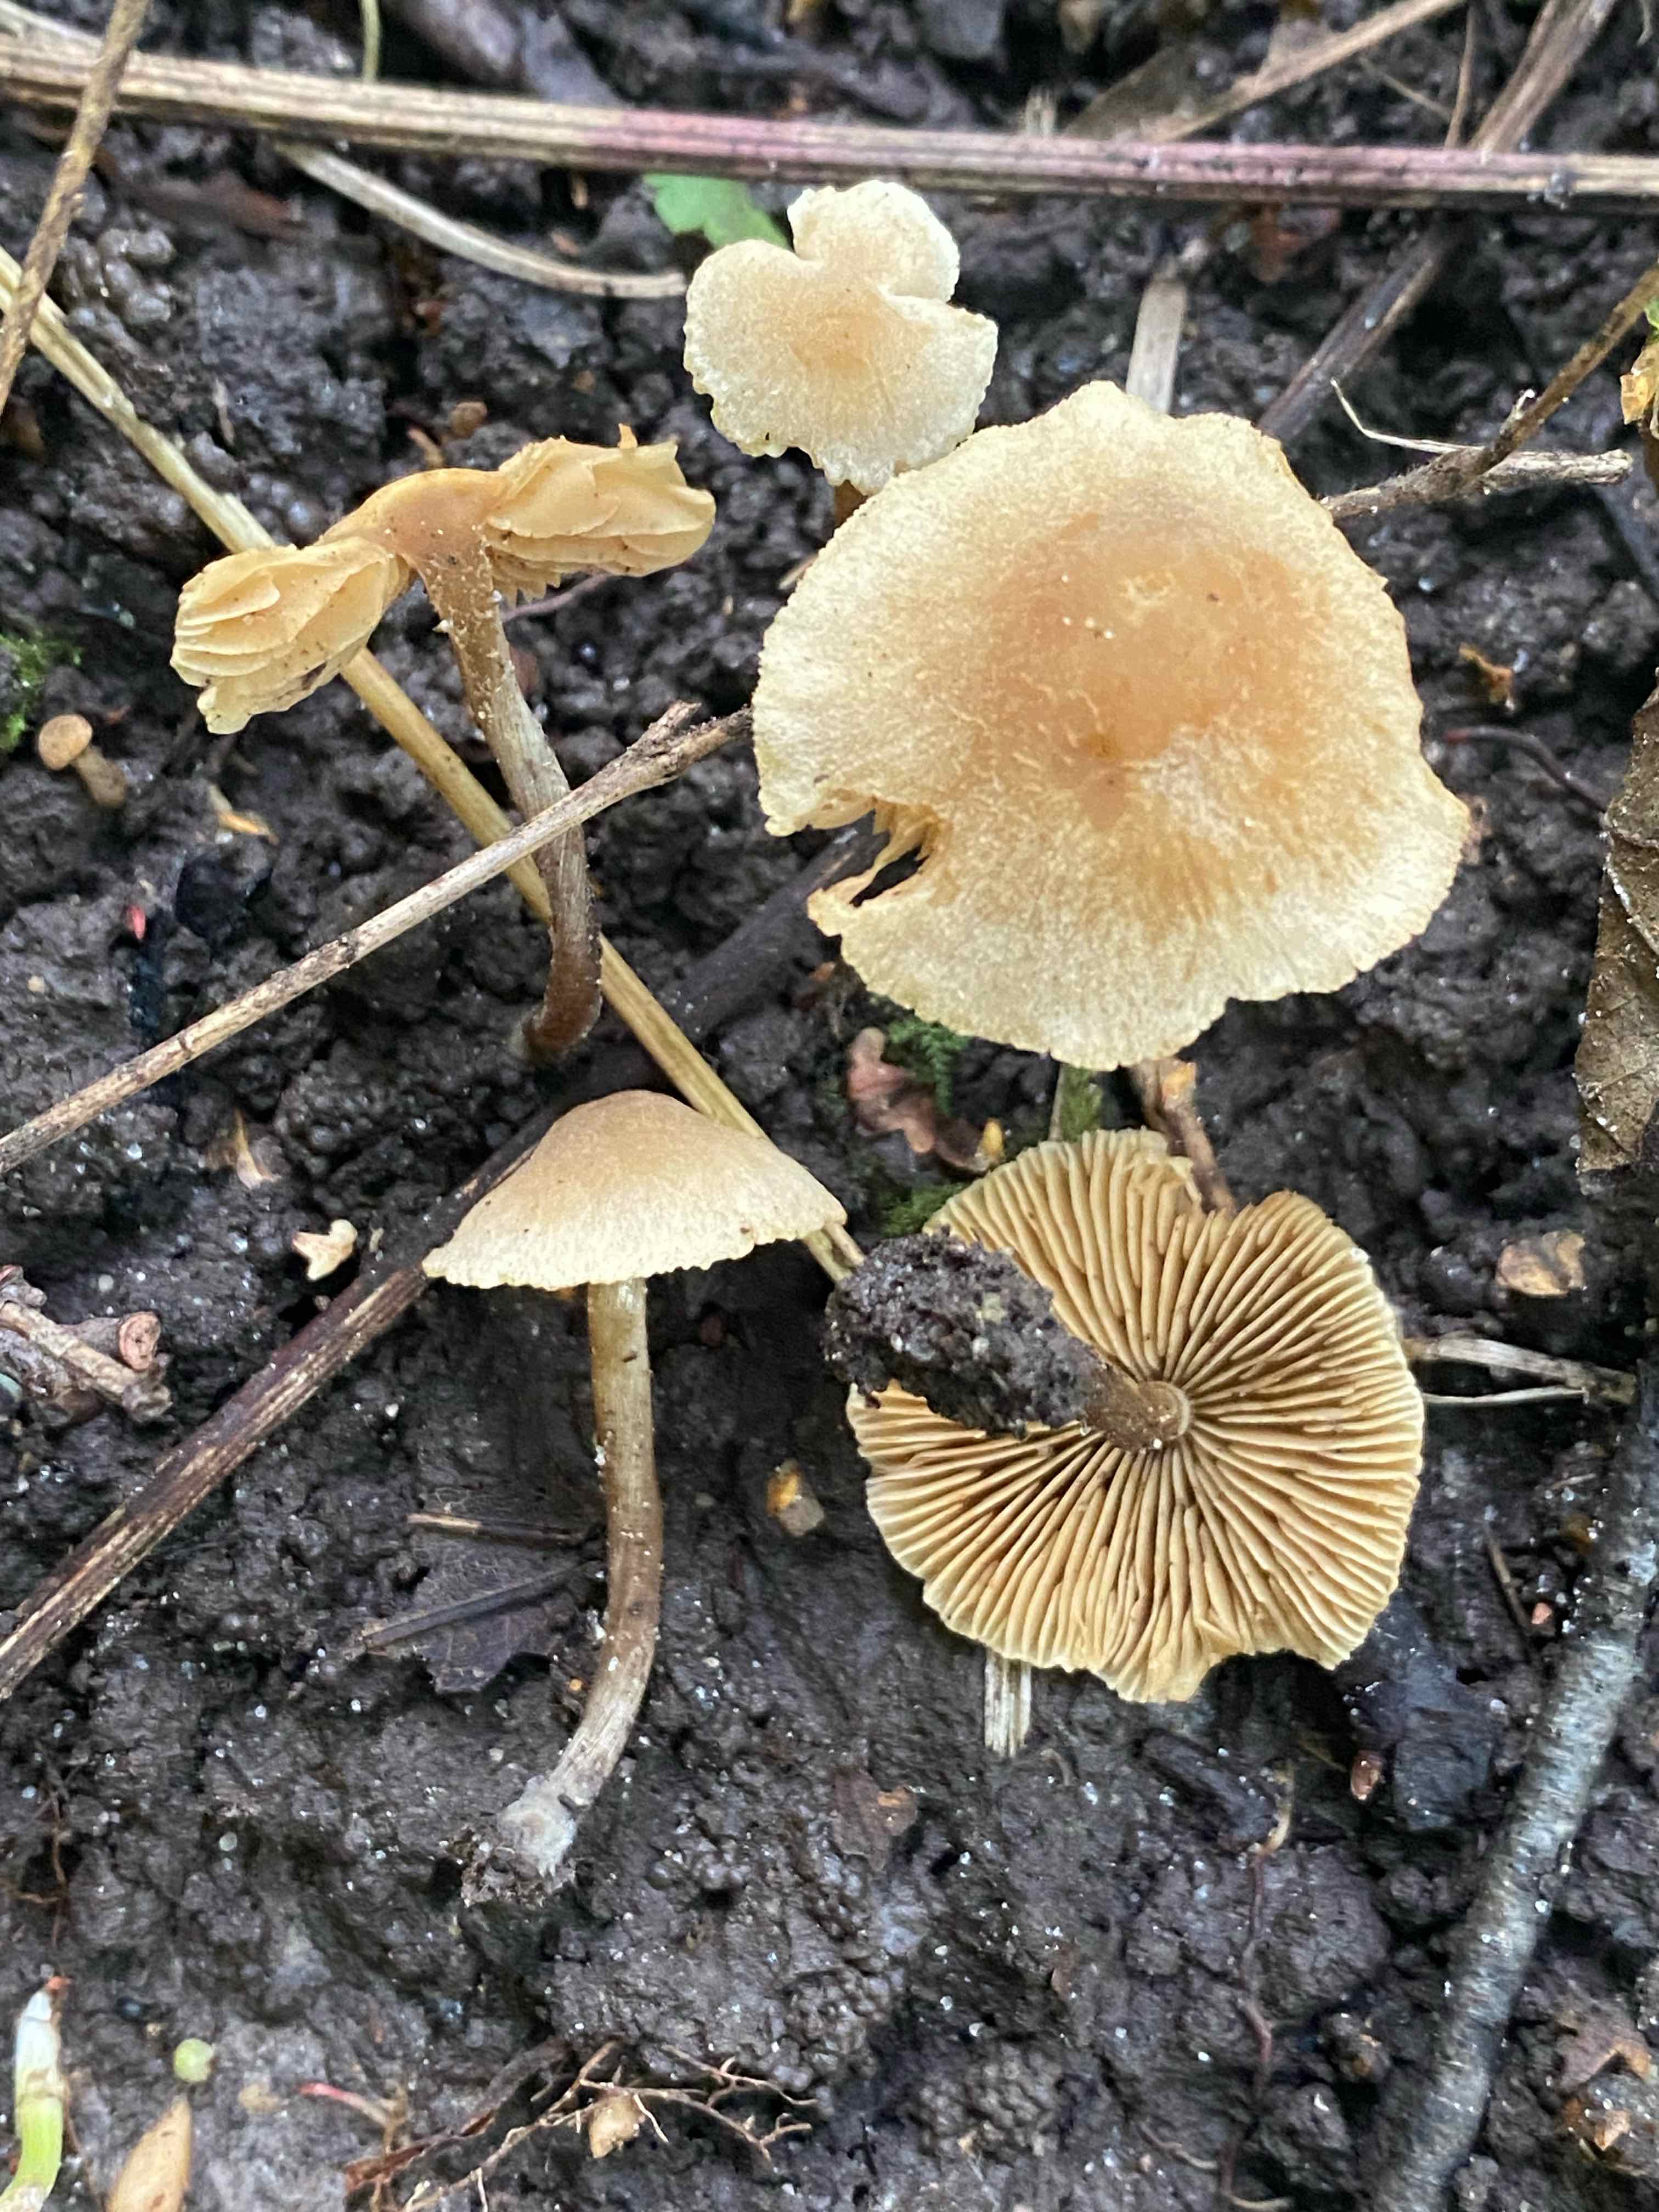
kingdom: Fungi
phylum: Basidiomycota
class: Agaricomycetes
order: Agaricales
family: Hymenogastraceae
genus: Naucoria
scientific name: Naucoria escharioides
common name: lys elle-knaphat
